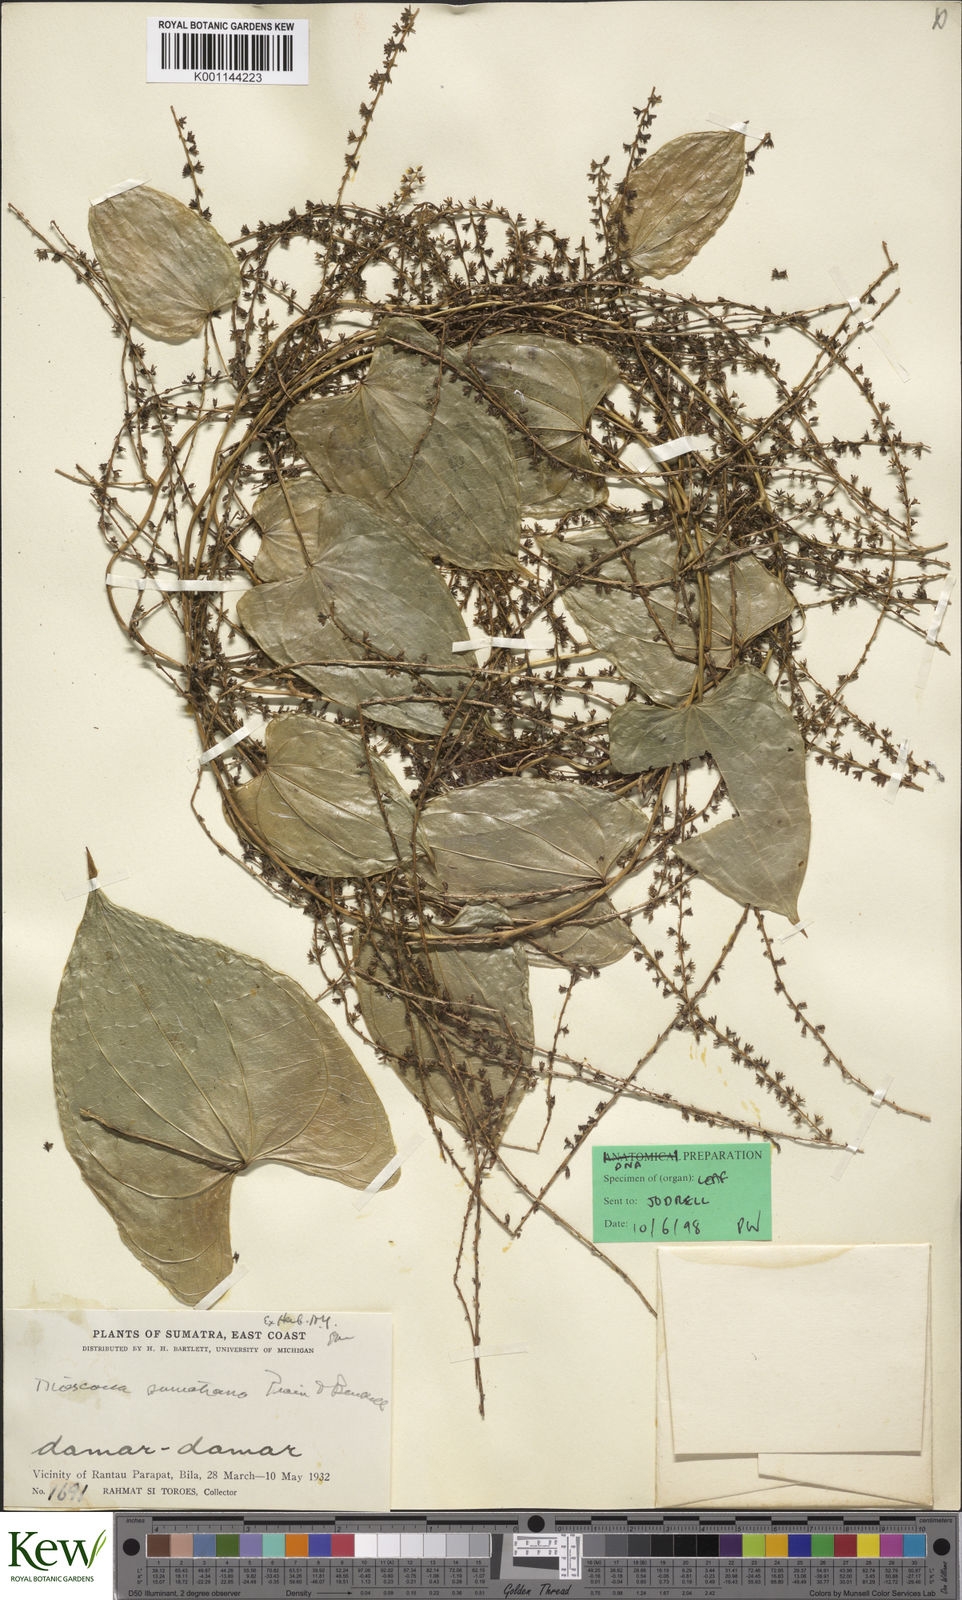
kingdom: Plantae
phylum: Tracheophyta
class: Liliopsida
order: Dioscoreales
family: Dioscoreaceae
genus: Dioscorea
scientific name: Dioscorea sumatrana
